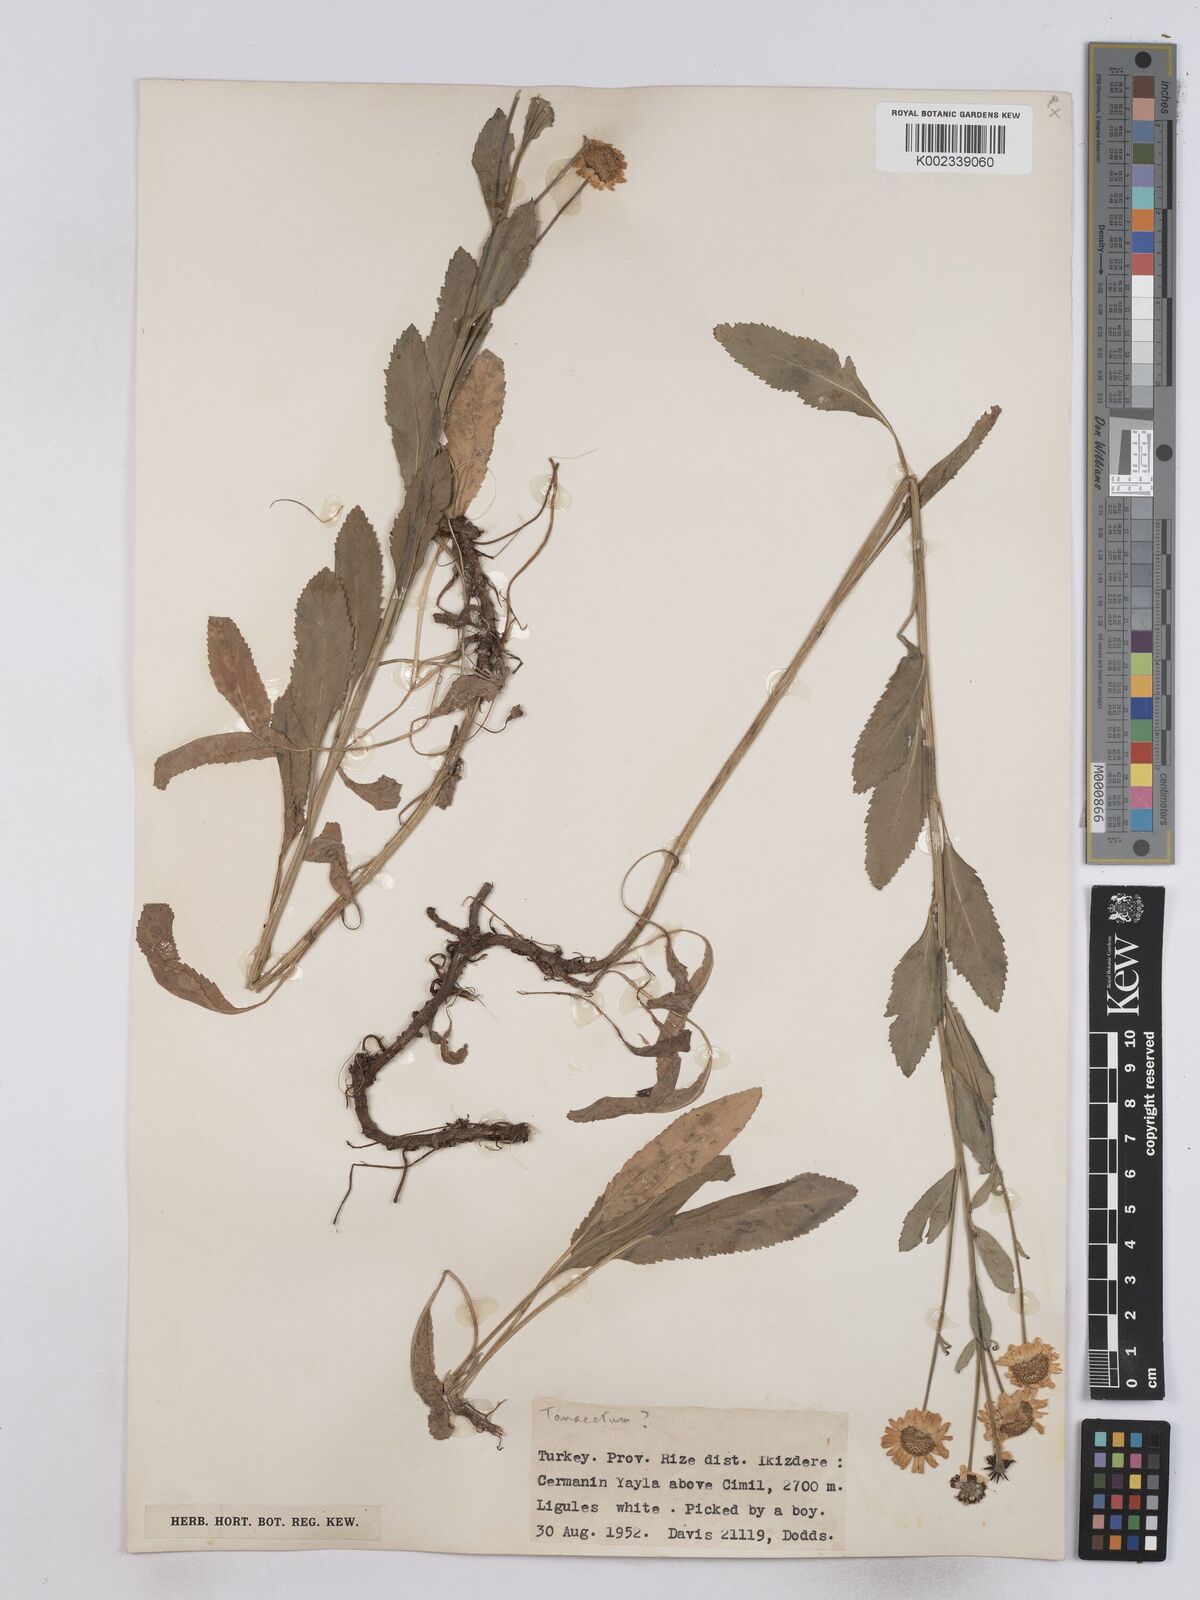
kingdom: Plantae
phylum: Tracheophyta
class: Magnoliopsida
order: Asterales
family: Asteraceae
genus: Tanacetum
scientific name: Tanacetum balsamita
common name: Costmary
